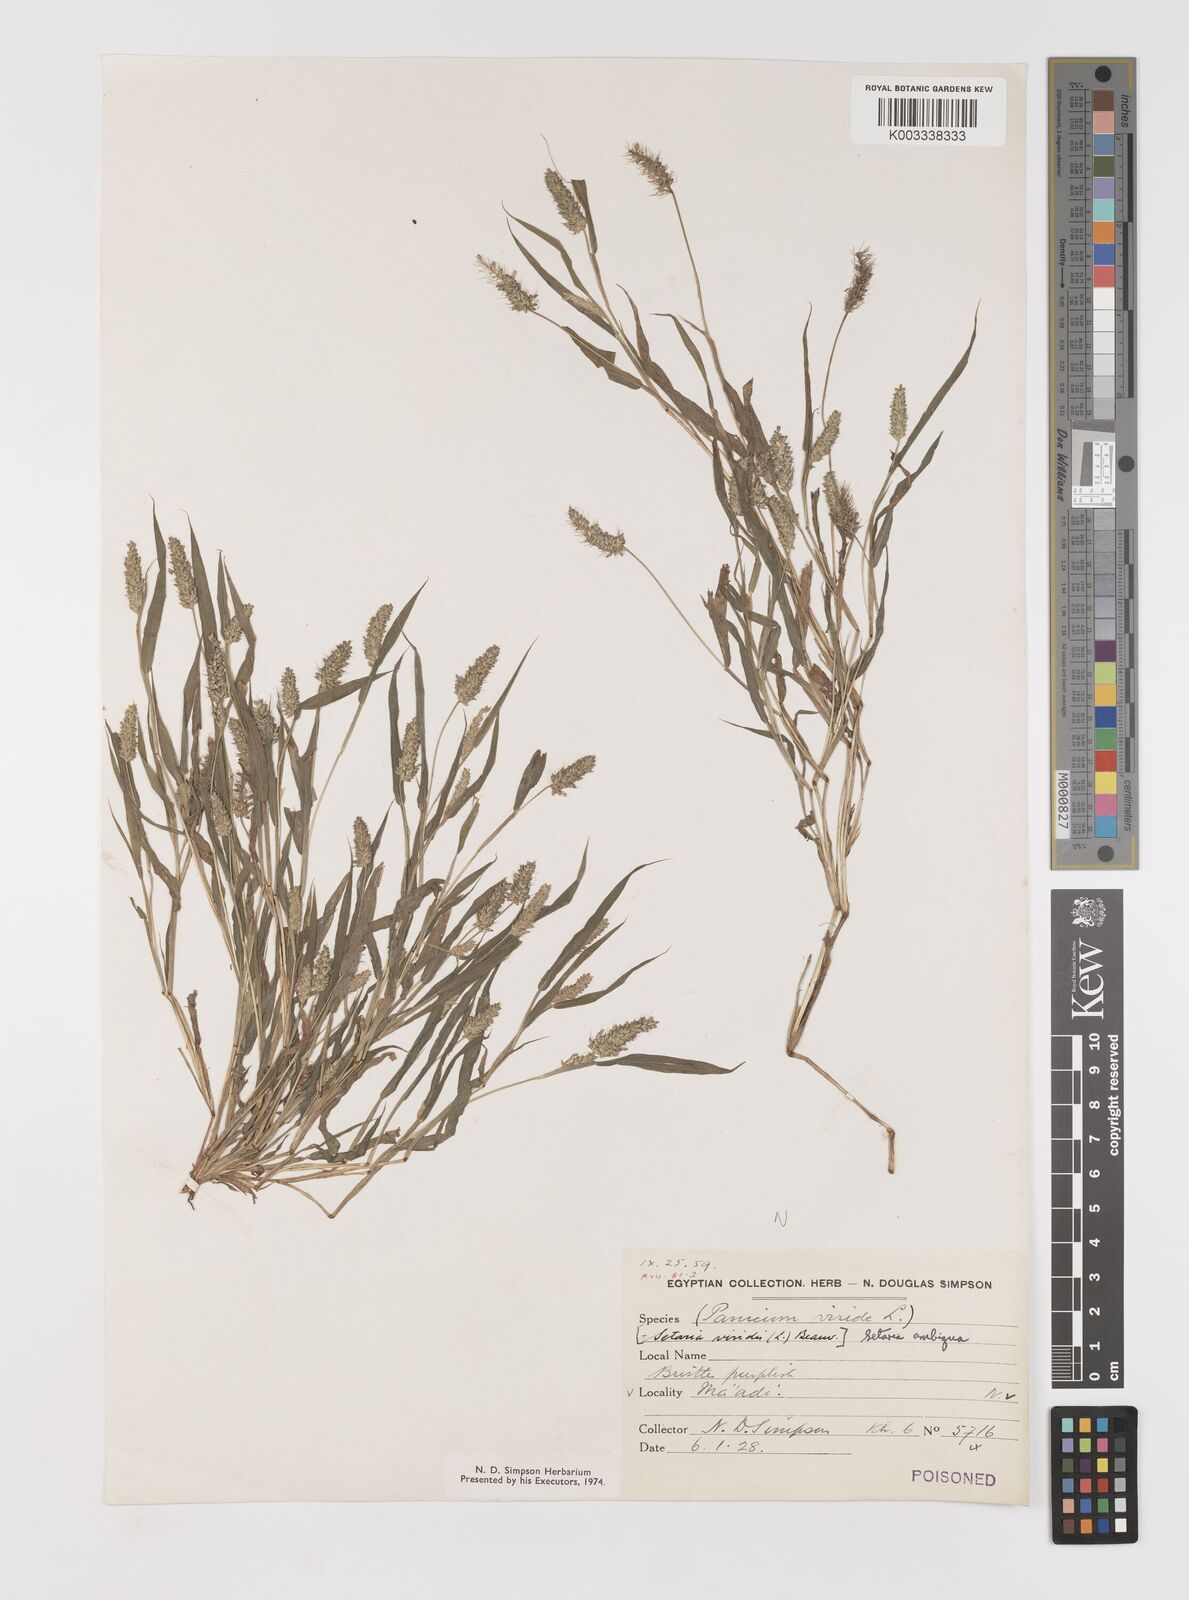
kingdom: Plantae
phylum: Tracheophyta
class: Liliopsida
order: Poales
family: Poaceae
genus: Setaria
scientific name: Setaria verticillata
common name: Hooked bristlegrass
